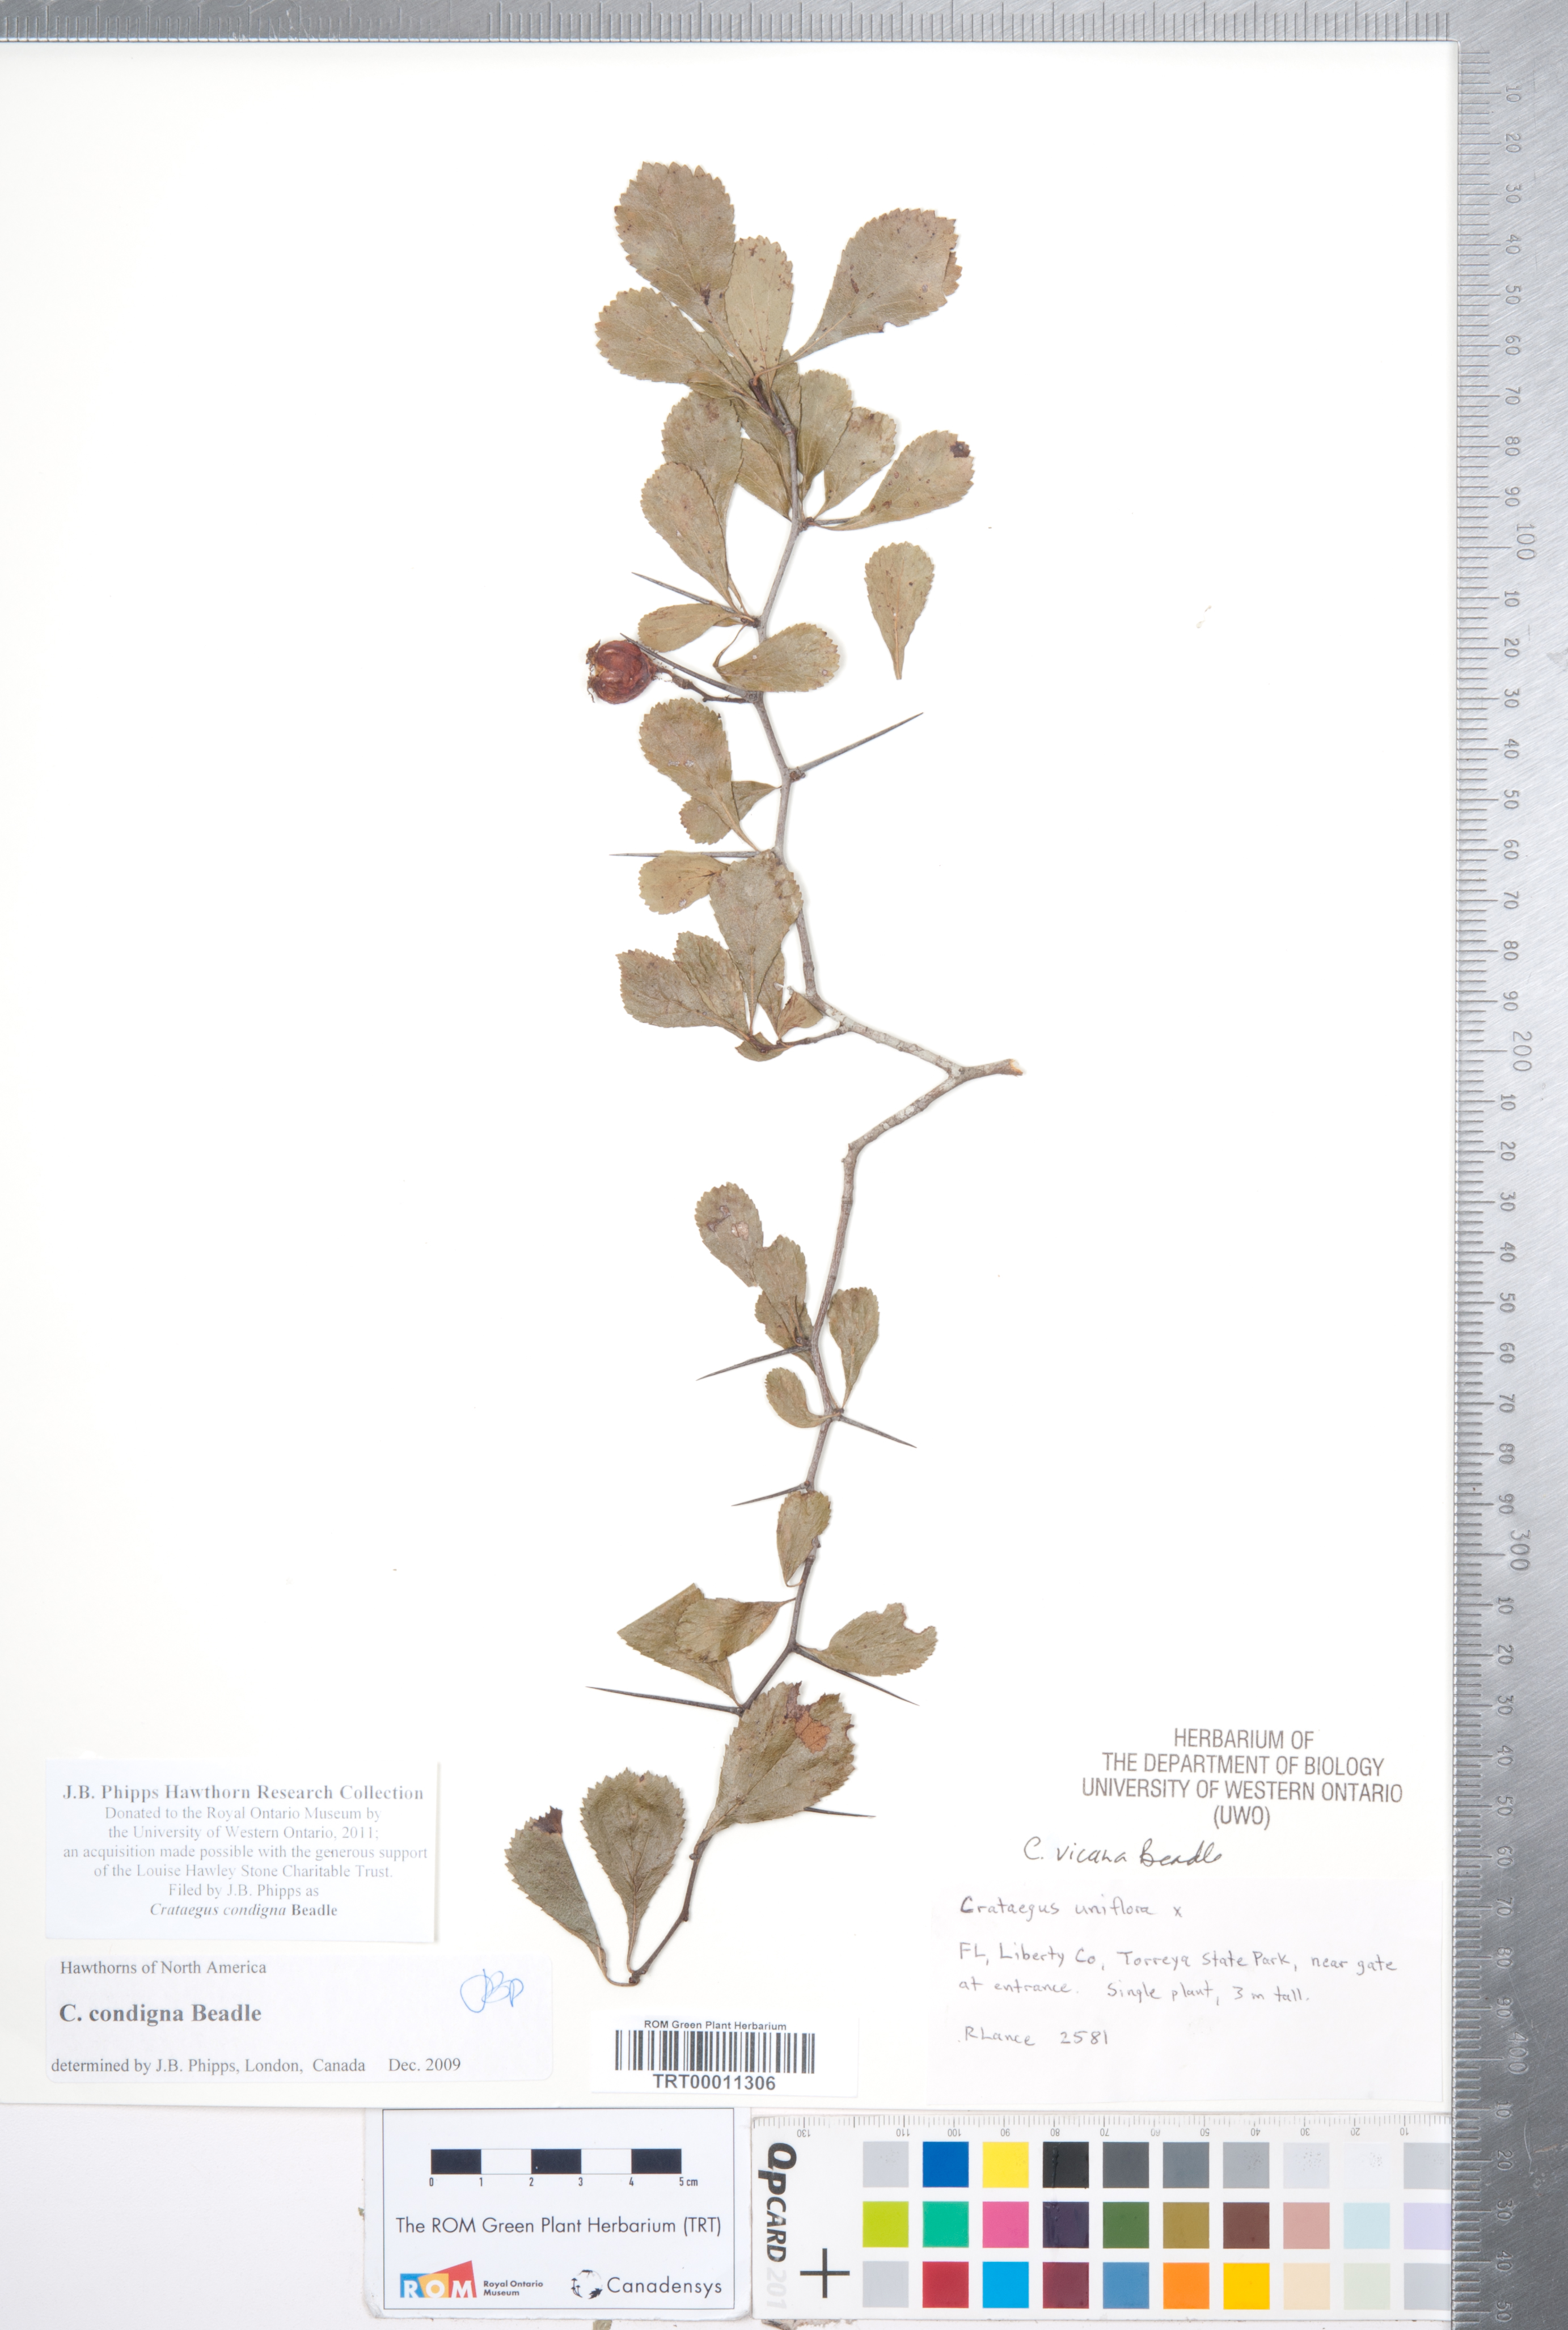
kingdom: Plantae
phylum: Tracheophyta
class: Magnoliopsida
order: Rosales
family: Rosaceae
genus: Crataegus
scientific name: Crataegus condigna
